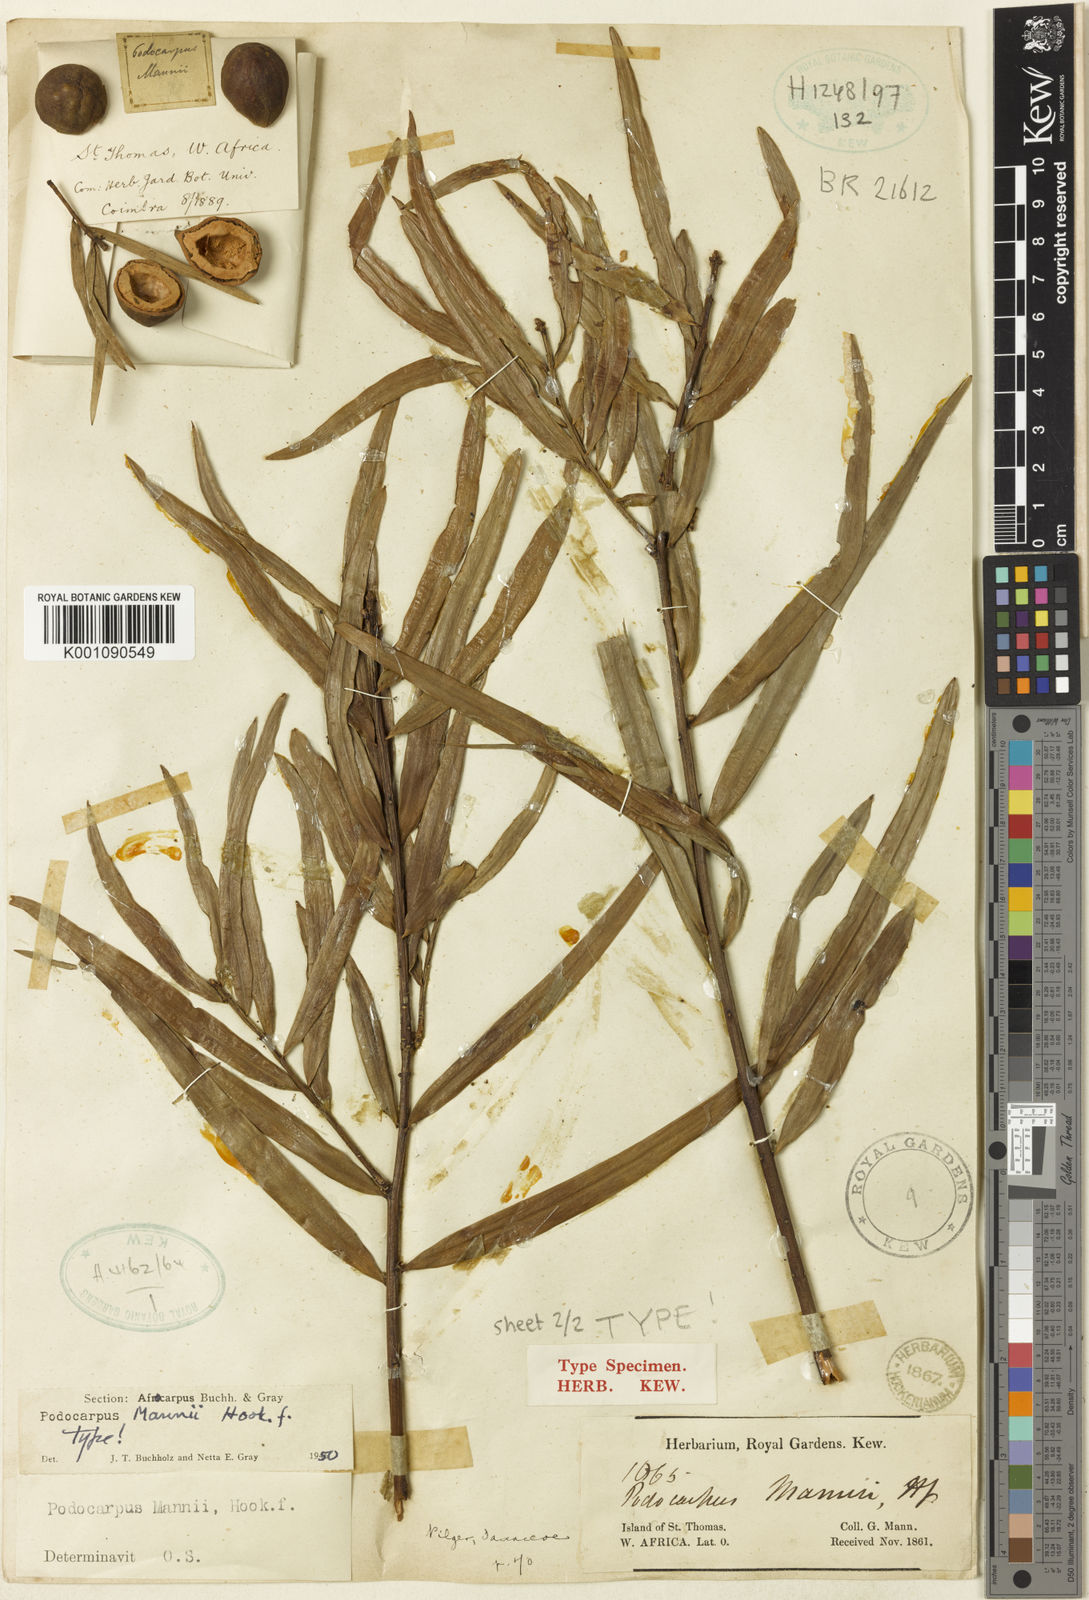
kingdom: Plantae
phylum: Tracheophyta
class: Pinopsida
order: Pinales
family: Podocarpaceae
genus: Afrocarpus
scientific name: Afrocarpus mannii
